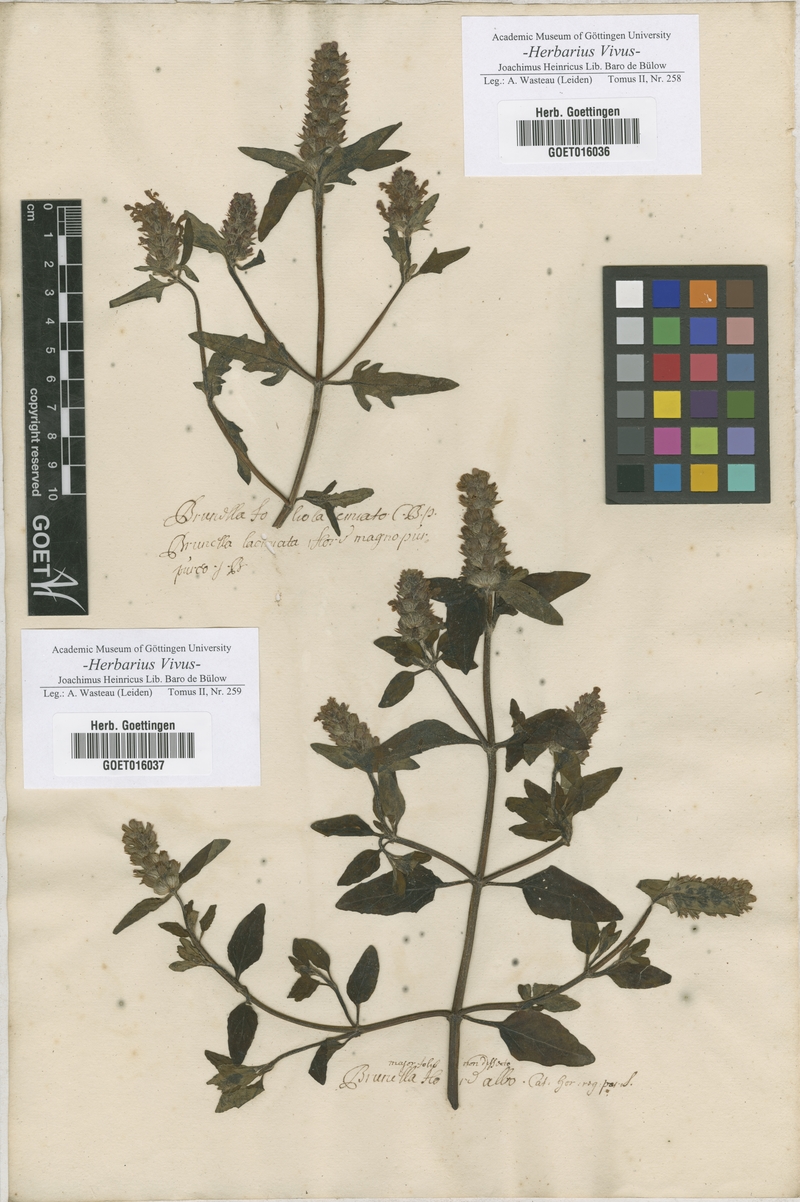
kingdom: Plantae
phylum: Tracheophyta
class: Magnoliopsida
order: Lamiales
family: Lamiaceae
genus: Prunella
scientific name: Prunella laciniata
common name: Cut-leaved selfheal
